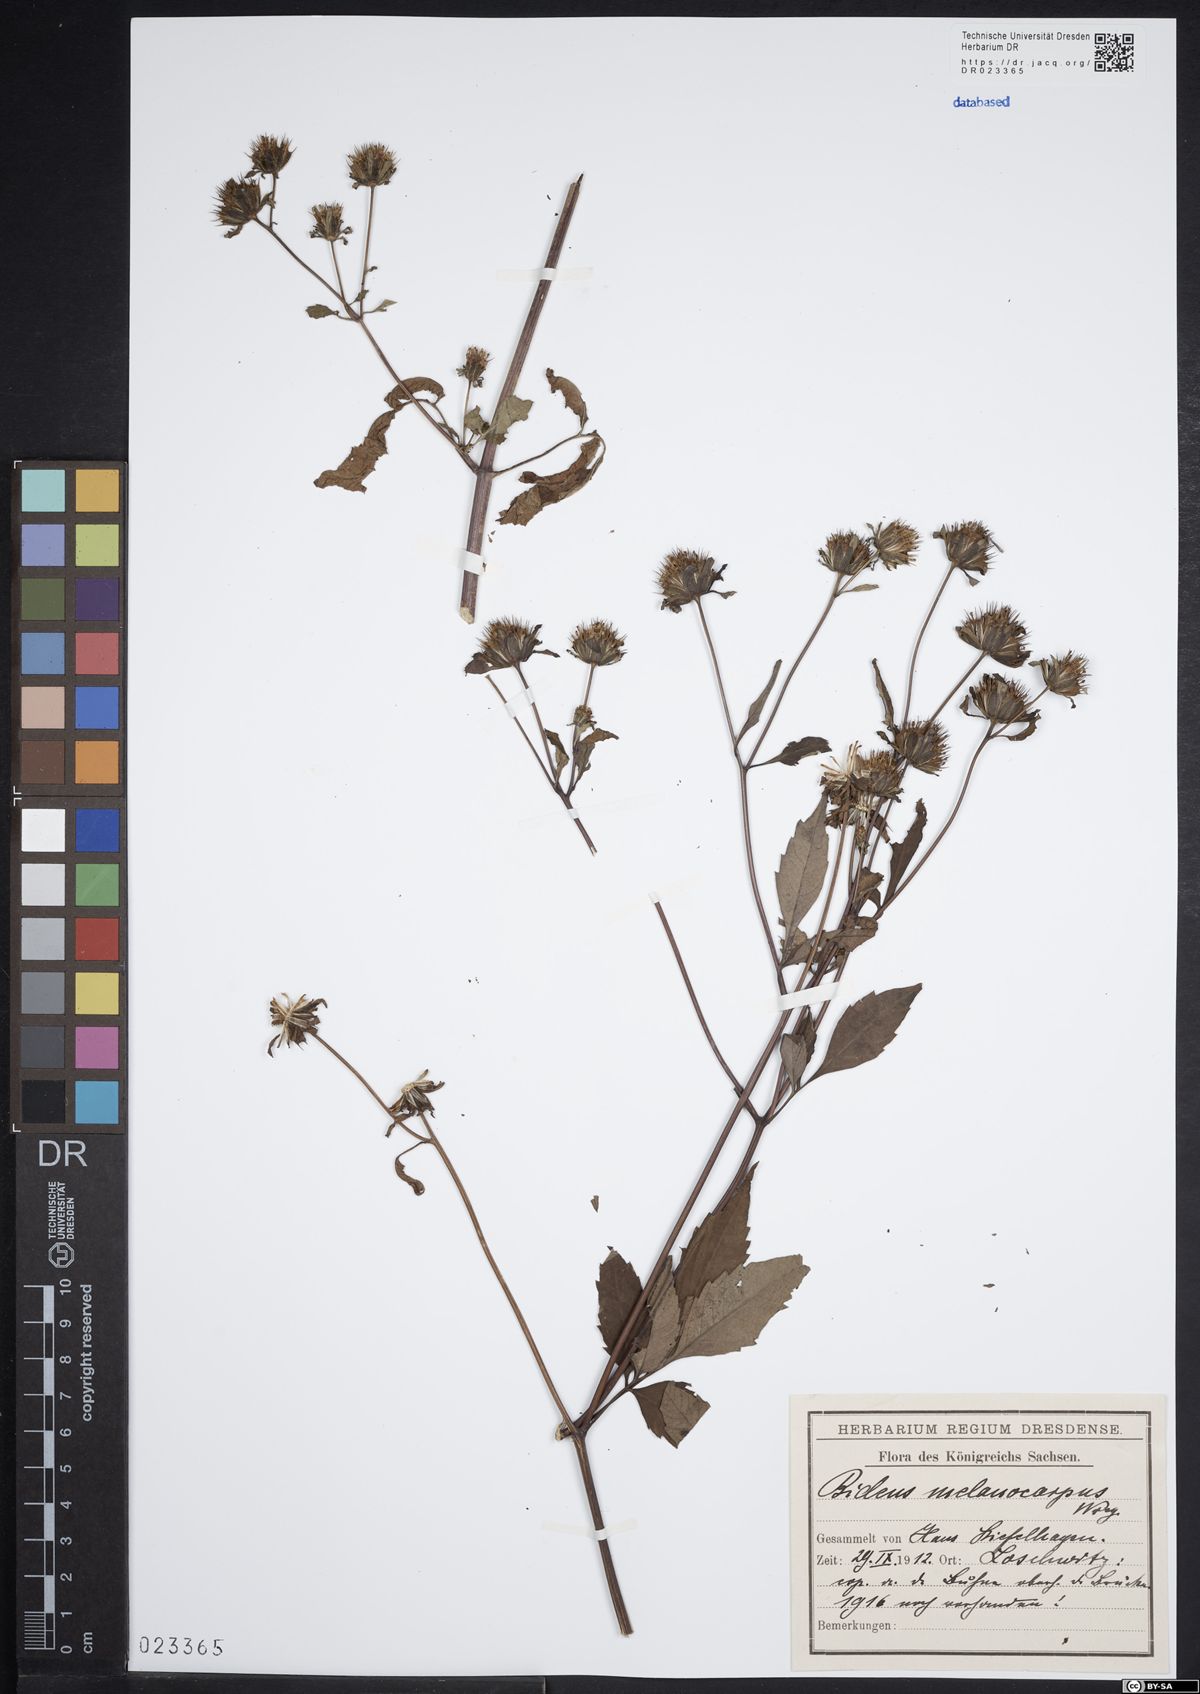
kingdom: Plantae
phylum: Tracheophyta
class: Magnoliopsida
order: Asterales
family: Asteraceae
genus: Bidens
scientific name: Bidens frondosa
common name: Beggarticks
